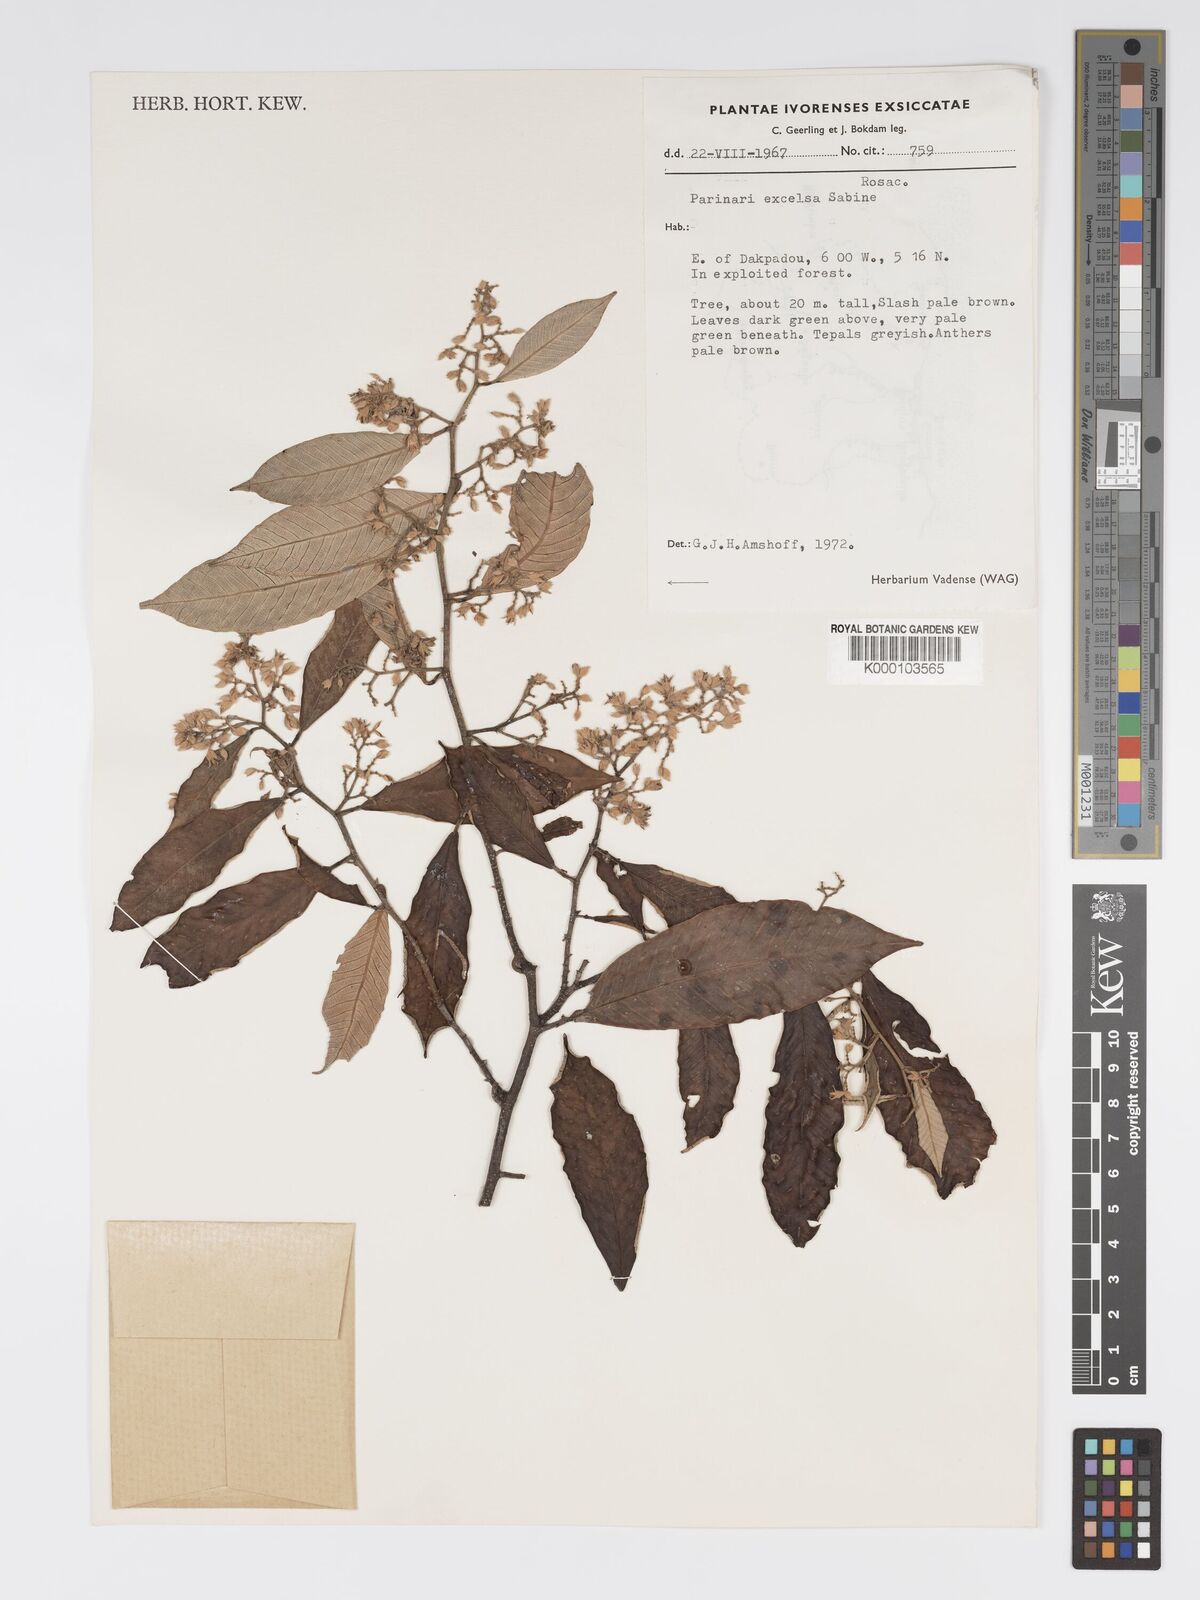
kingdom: Plantae
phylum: Tracheophyta
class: Magnoliopsida
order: Malpighiales
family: Chrysobalanaceae
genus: Parinari
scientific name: Parinari excelsa
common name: Guinea-plum
